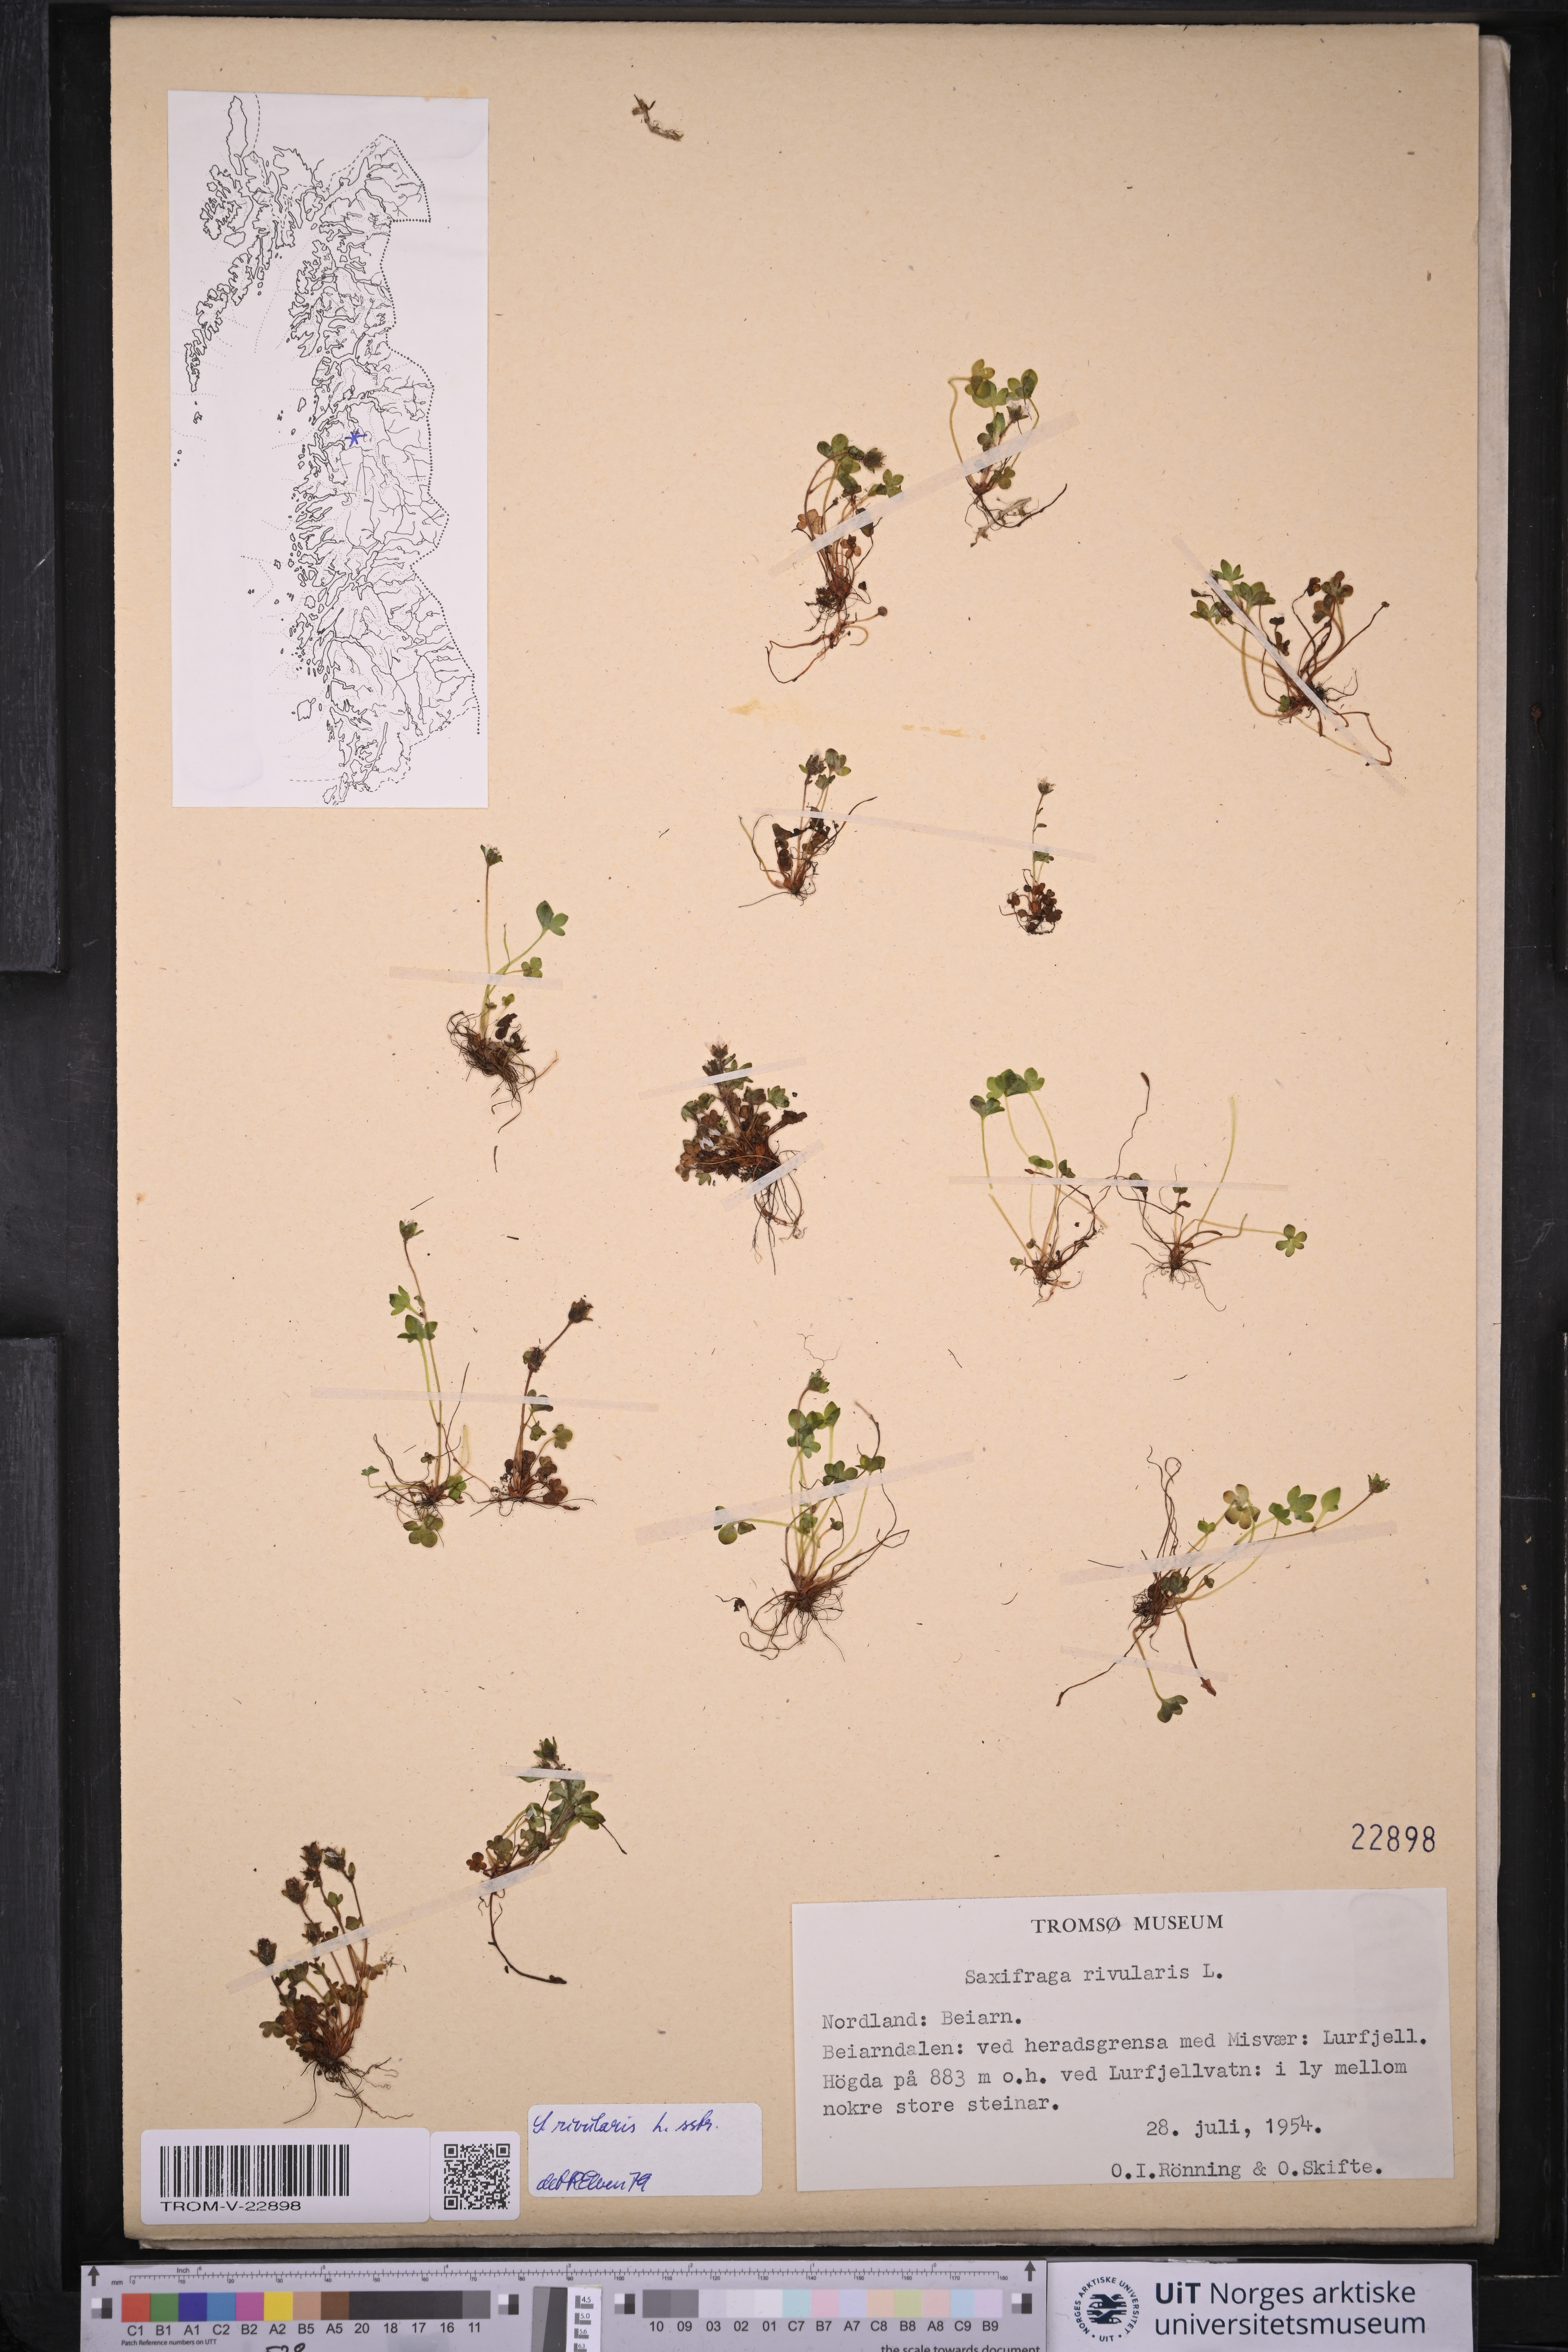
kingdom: Plantae
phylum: Tracheophyta
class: Magnoliopsida
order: Saxifragales
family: Saxifragaceae
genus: Saxifraga
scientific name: Saxifraga rivularis
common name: Highland saxifrage
